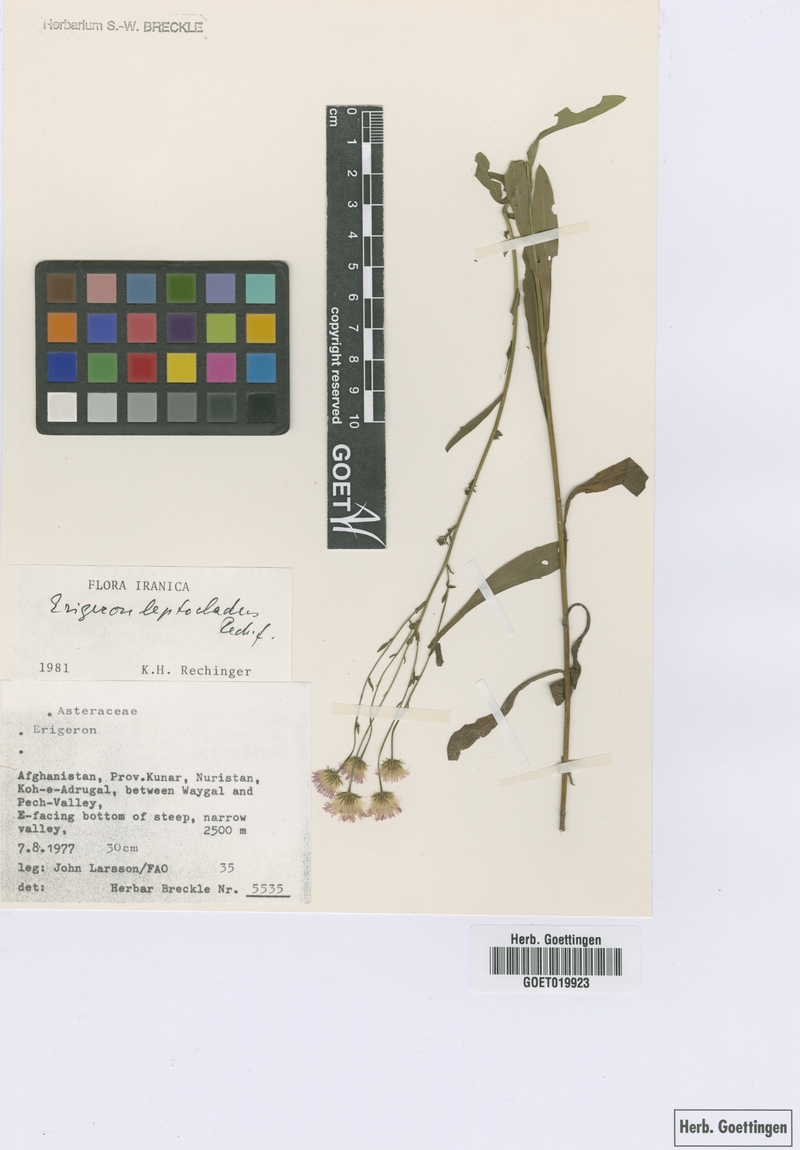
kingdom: Plantae
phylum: Tracheophyta
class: Magnoliopsida
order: Asterales
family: Asteraceae
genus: Erigeron
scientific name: Erigeron leptocladus
